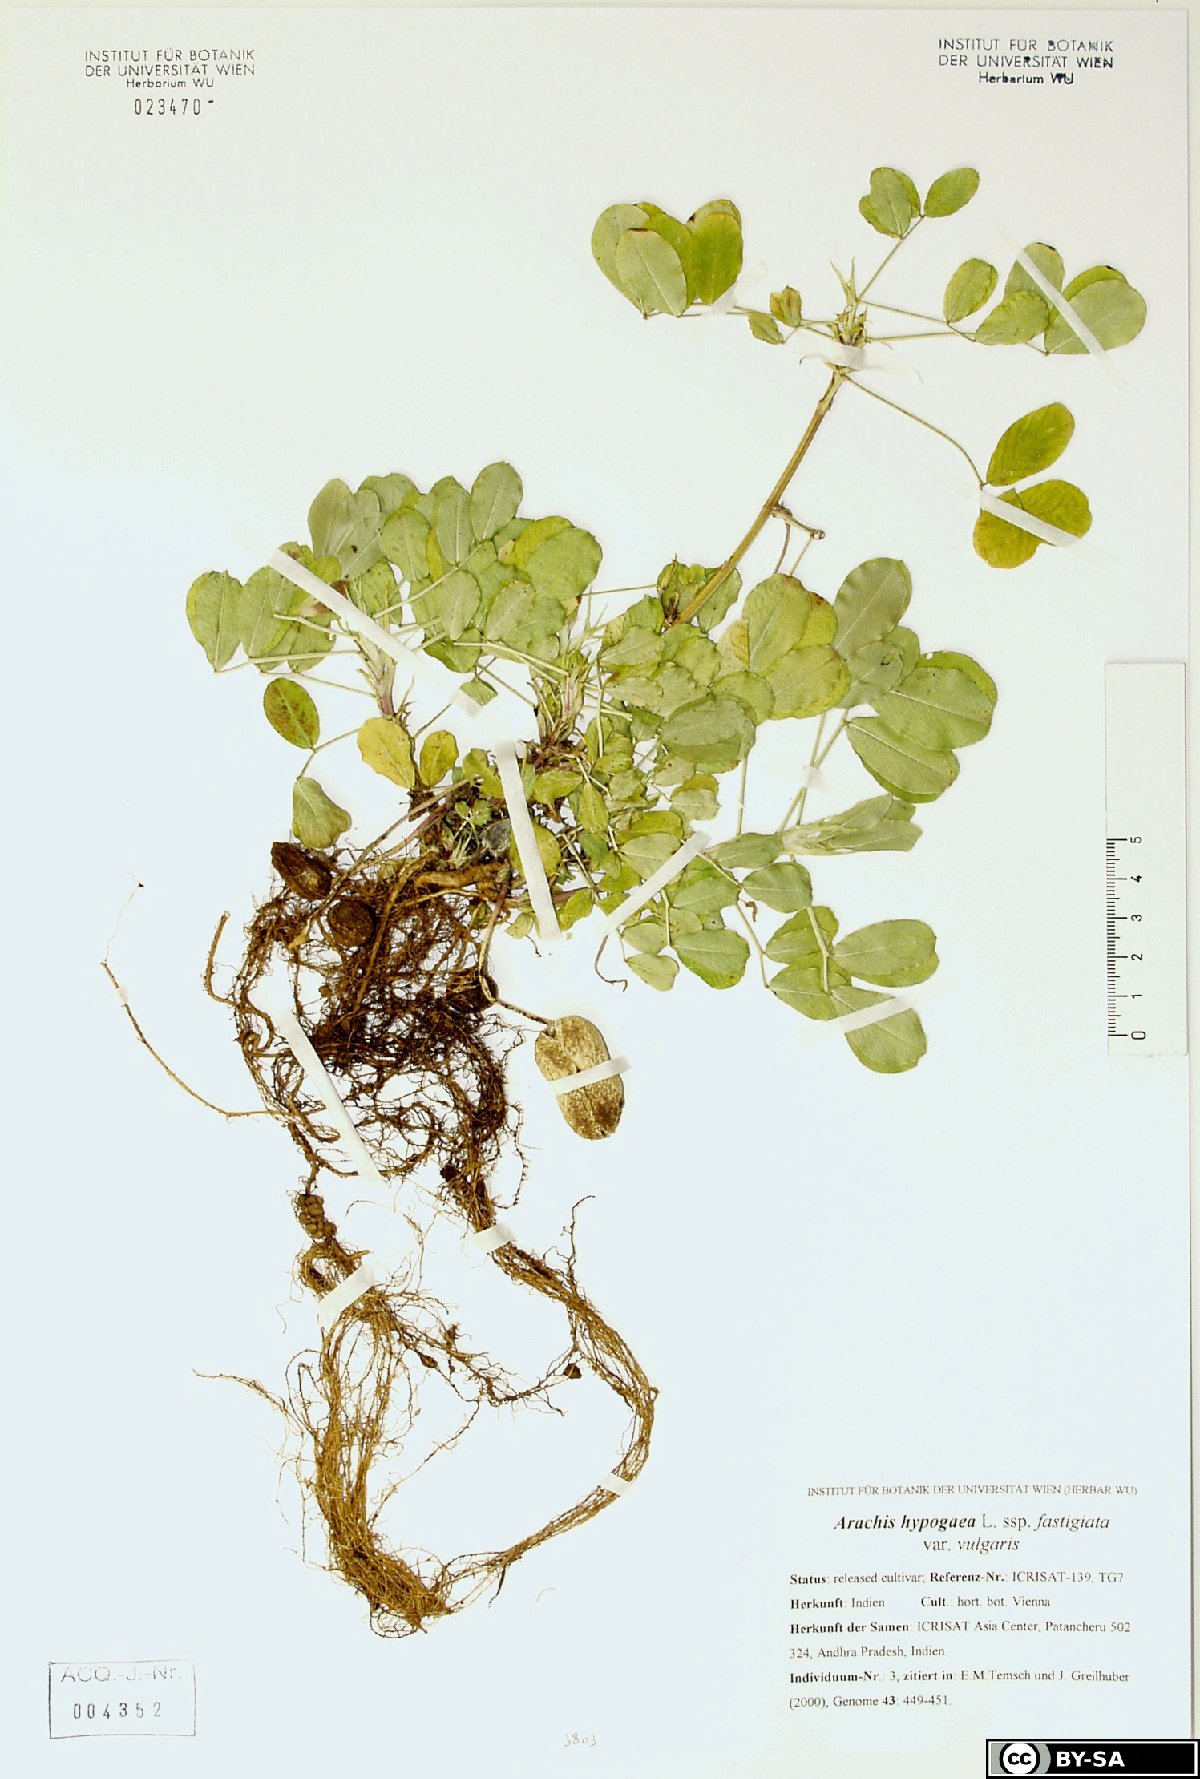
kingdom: Plantae
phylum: Tracheophyta
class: Magnoliopsida
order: Fabales
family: Fabaceae
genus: Arachis
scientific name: Arachis hypogaea
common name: Peanut
